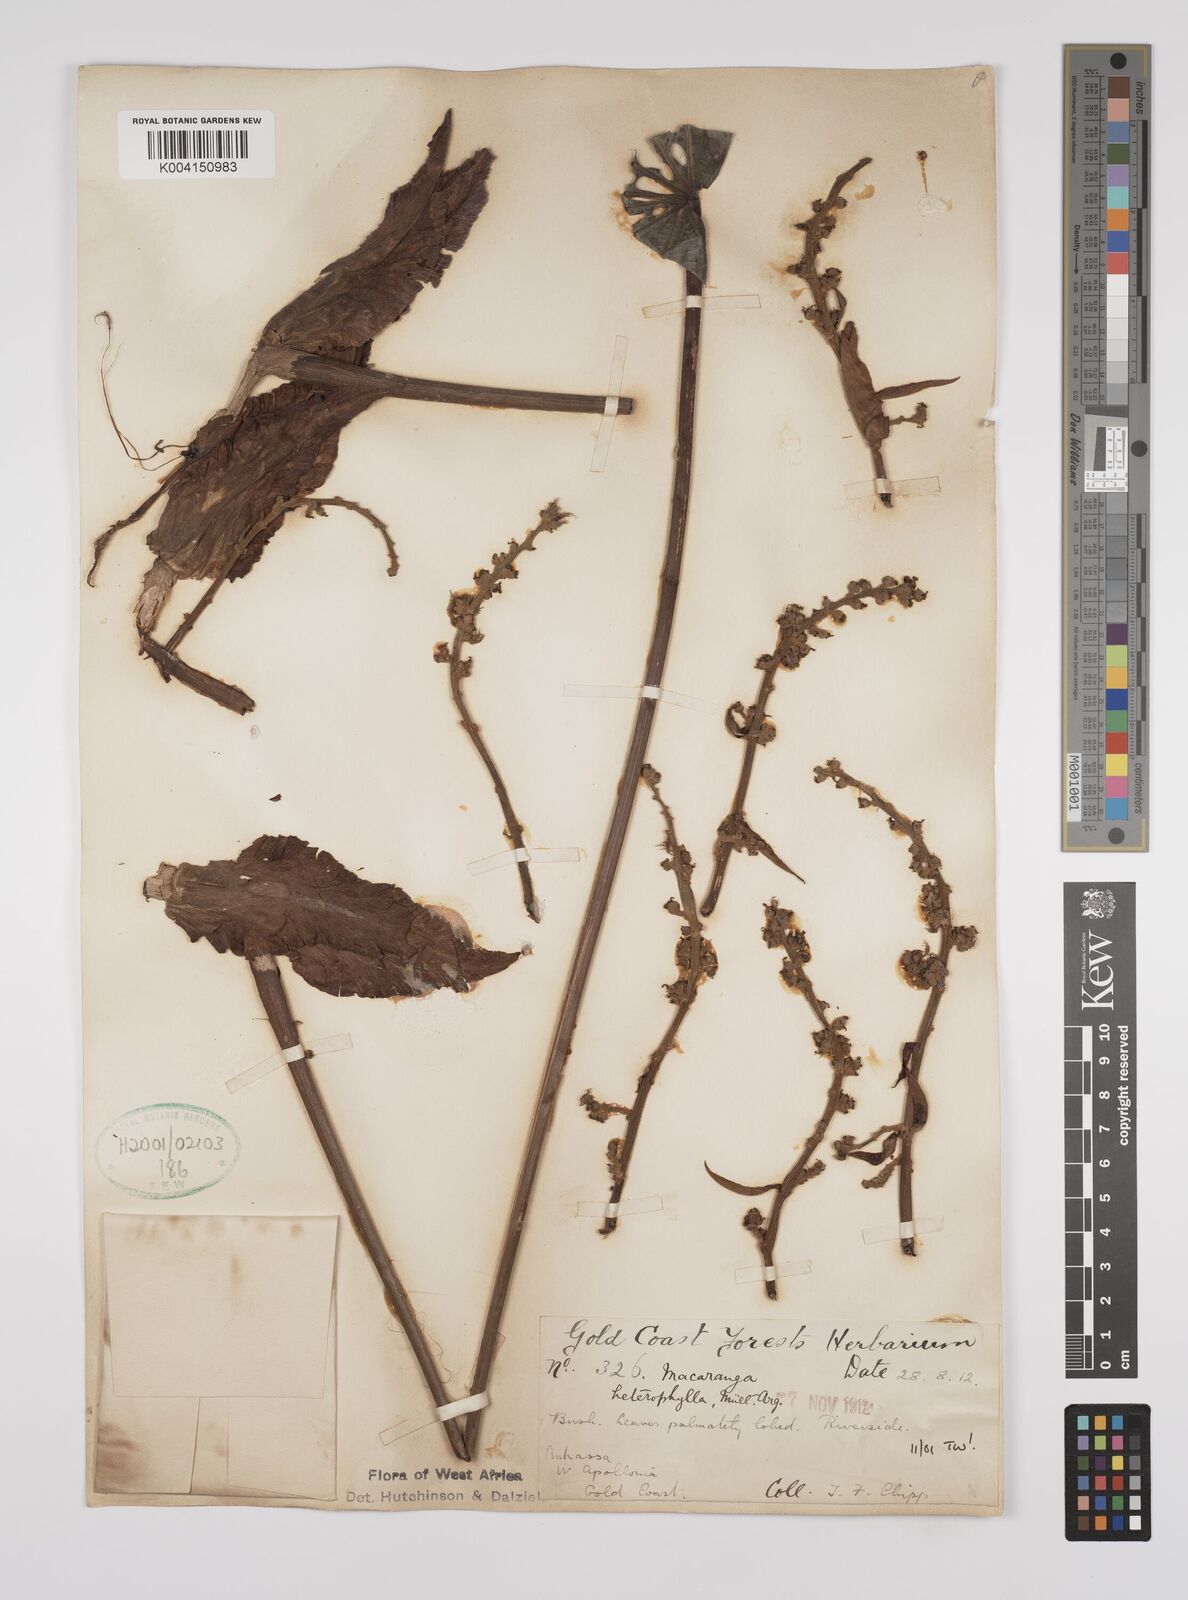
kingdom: Plantae
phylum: Tracheophyta
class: Magnoliopsida
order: Malpighiales
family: Euphorbiaceae
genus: Macaranga
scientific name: Macaranga heterophylla
